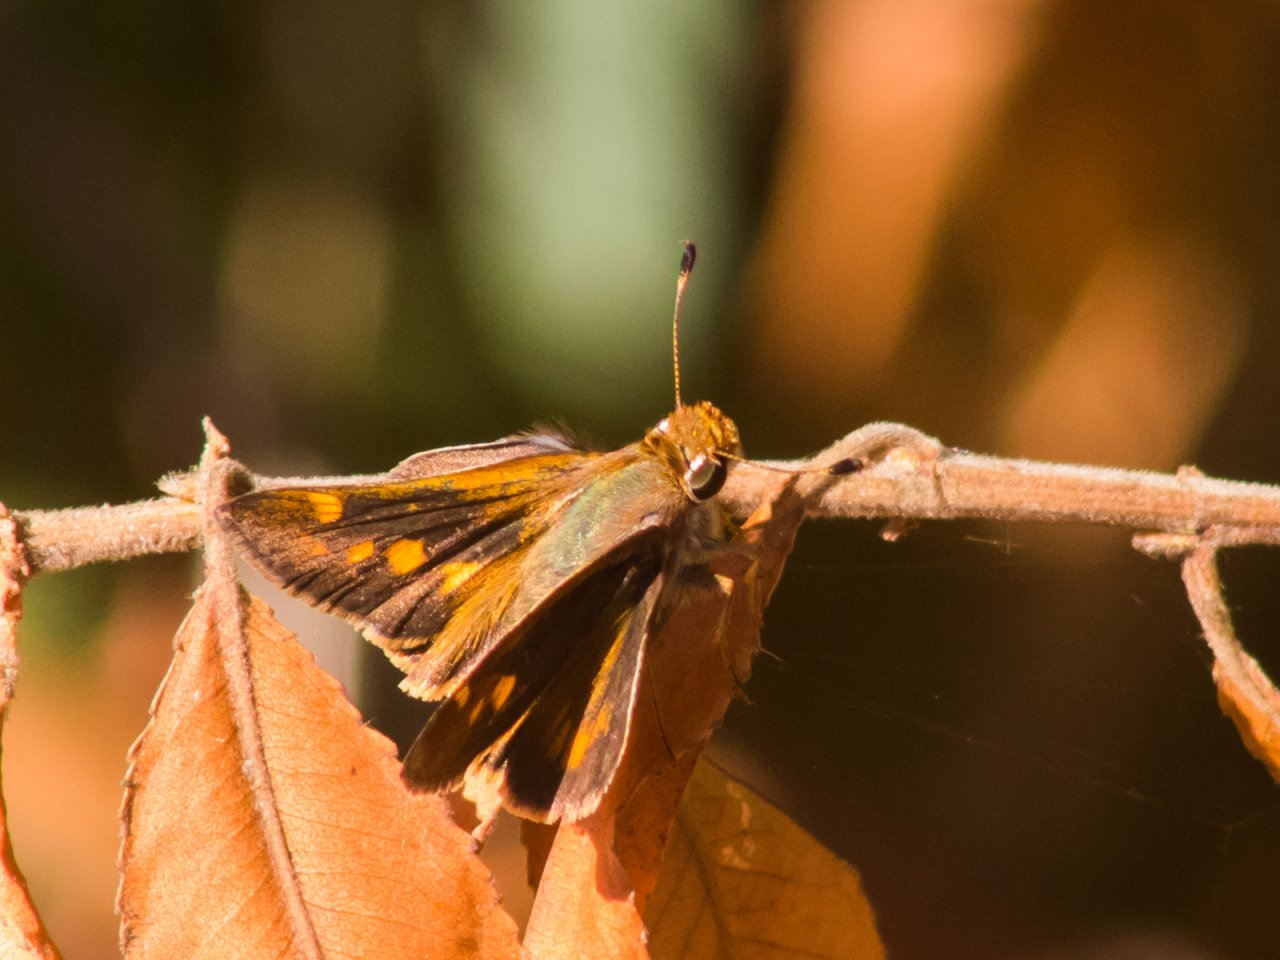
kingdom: Animalia
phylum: Arthropoda
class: Insecta
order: Lepidoptera
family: Hesperiidae
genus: Lon
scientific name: Lon melane
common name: Umber Skipper
